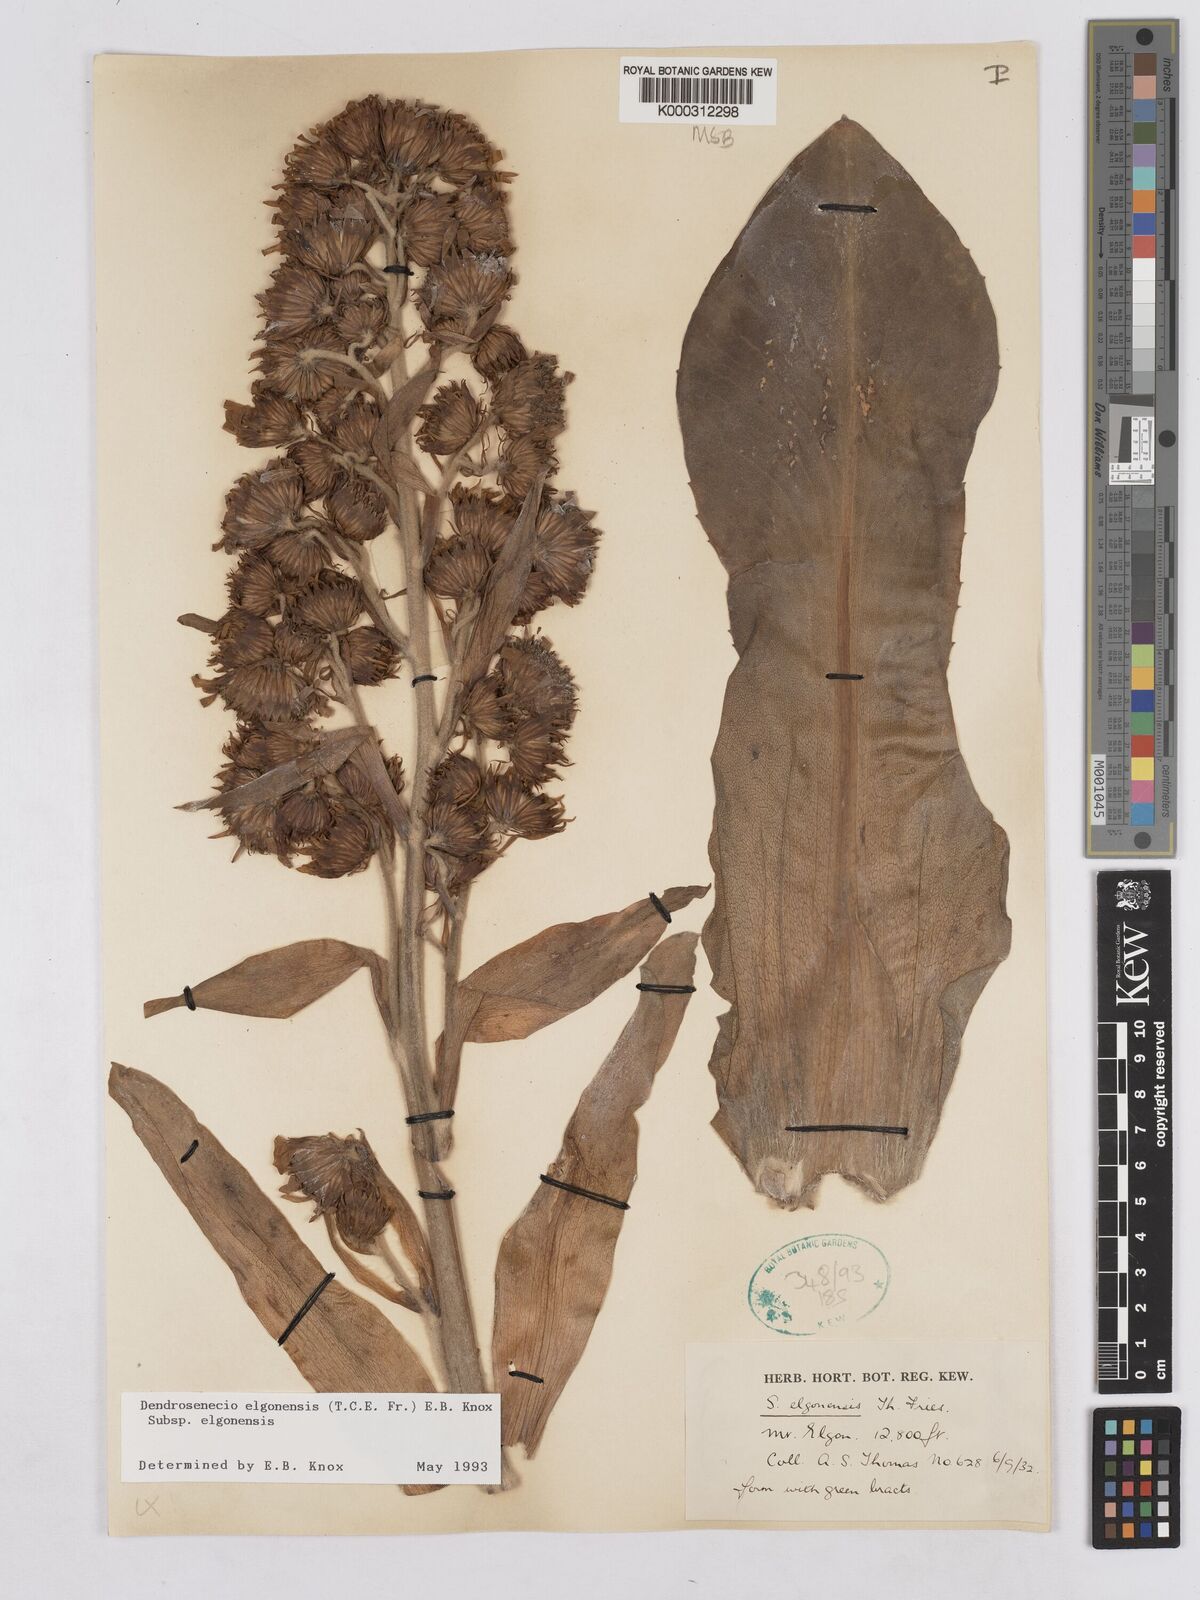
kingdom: Plantae
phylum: Tracheophyta
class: Magnoliopsida
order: Asterales
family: Asteraceae
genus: Dendrosenecio
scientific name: Dendrosenecio elgonensis
